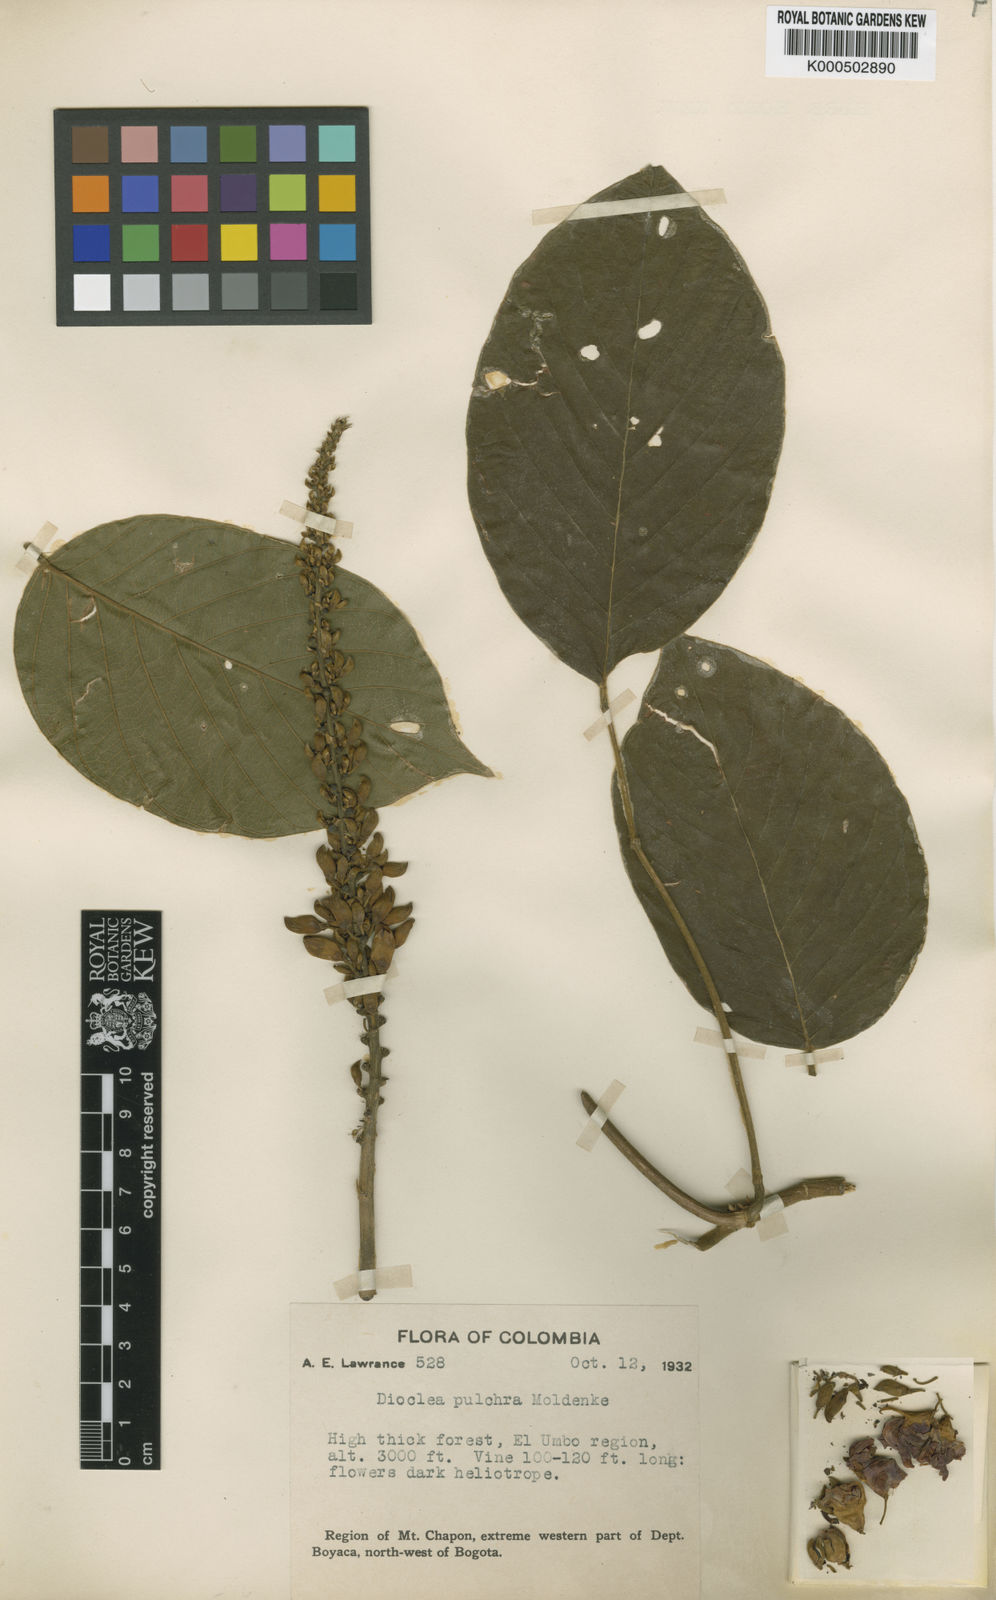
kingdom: Plantae
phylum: Tracheophyta
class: Magnoliopsida
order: Fabales
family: Fabaceae
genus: Macropsychanthus
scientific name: Macropsychanthus pulcher
